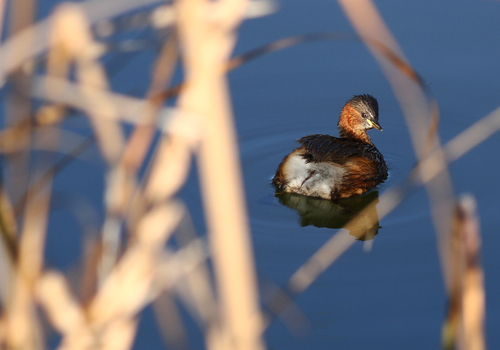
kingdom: Animalia
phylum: Chordata
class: Aves
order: Podicipediformes
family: Podicipedidae
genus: Tachybaptus
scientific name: Tachybaptus ruficollis
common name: Little grebe
